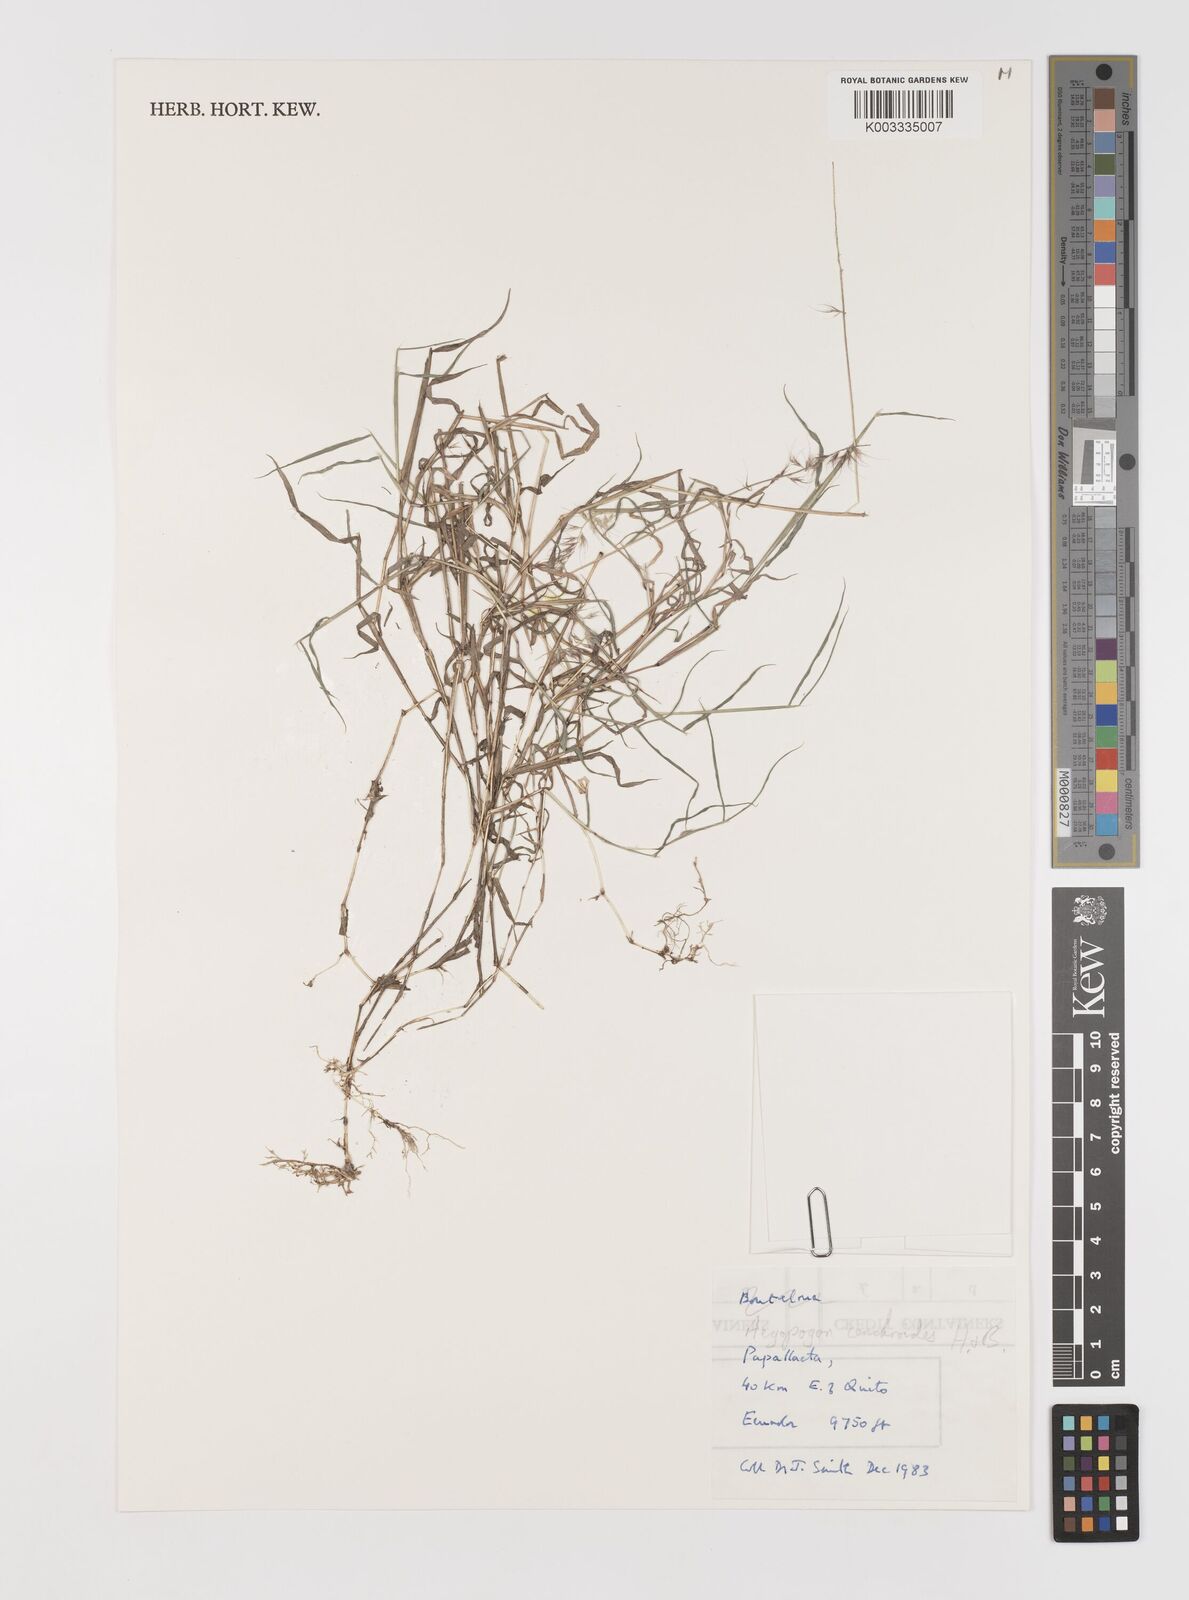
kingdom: Plantae
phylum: Tracheophyta
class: Liliopsida
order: Poales
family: Poaceae
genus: Muhlenbergia
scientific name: Muhlenbergia cenchroides
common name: Relaxgrass
